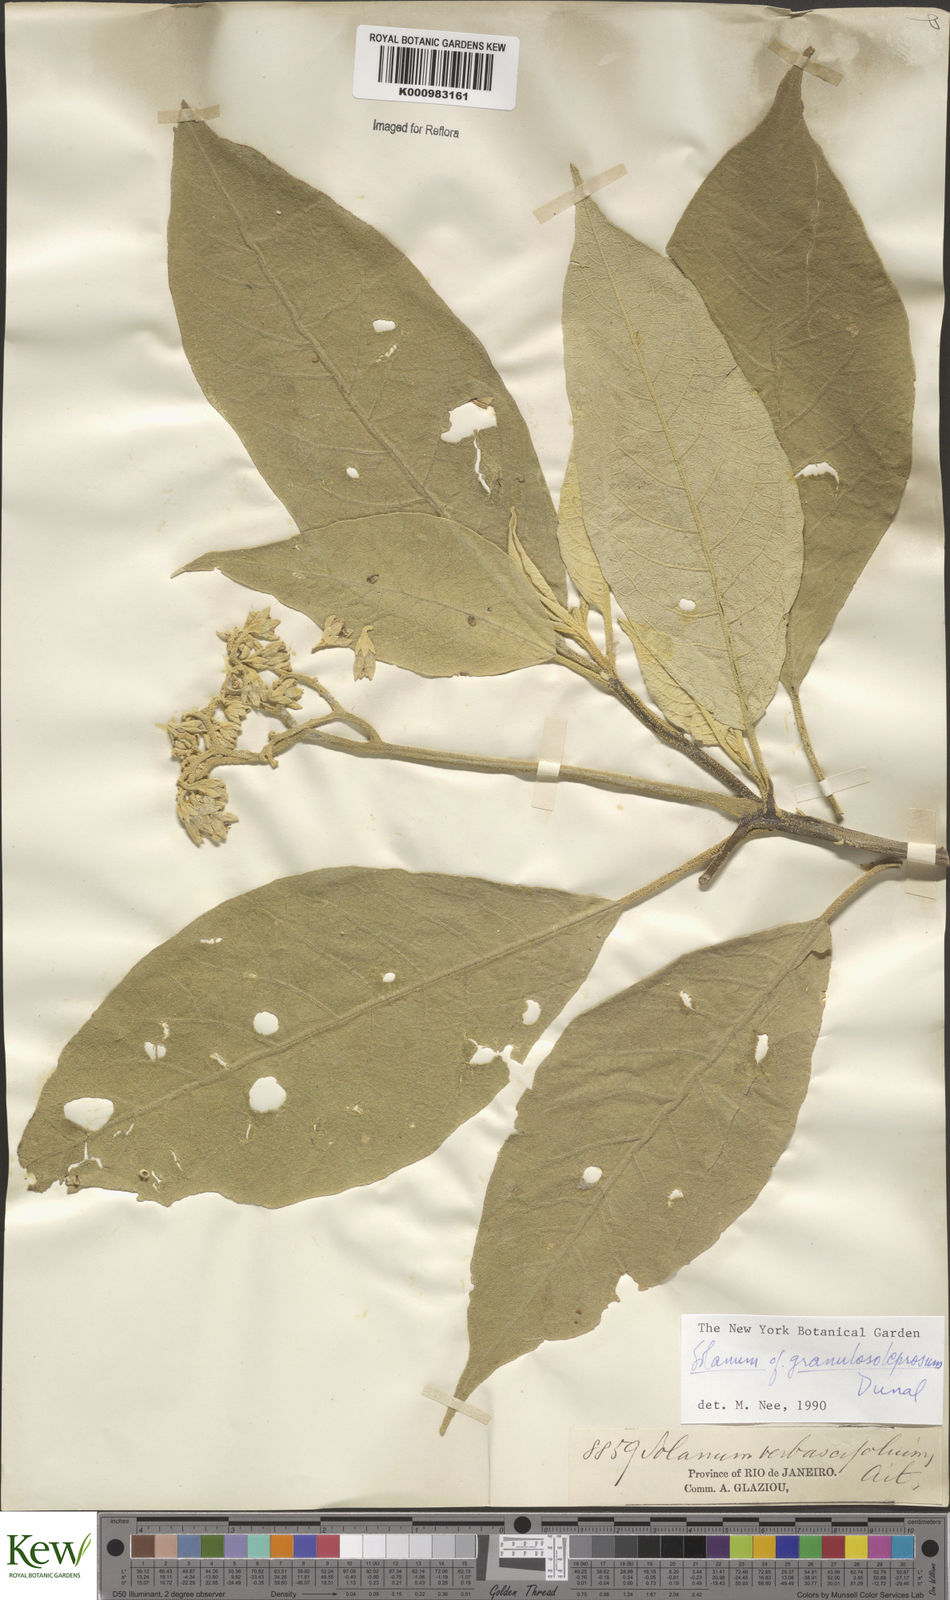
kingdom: Plantae
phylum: Tracheophyta
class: Magnoliopsida
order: Solanales
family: Solanaceae
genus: Solanum
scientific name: Solanum granulosoleprosum
